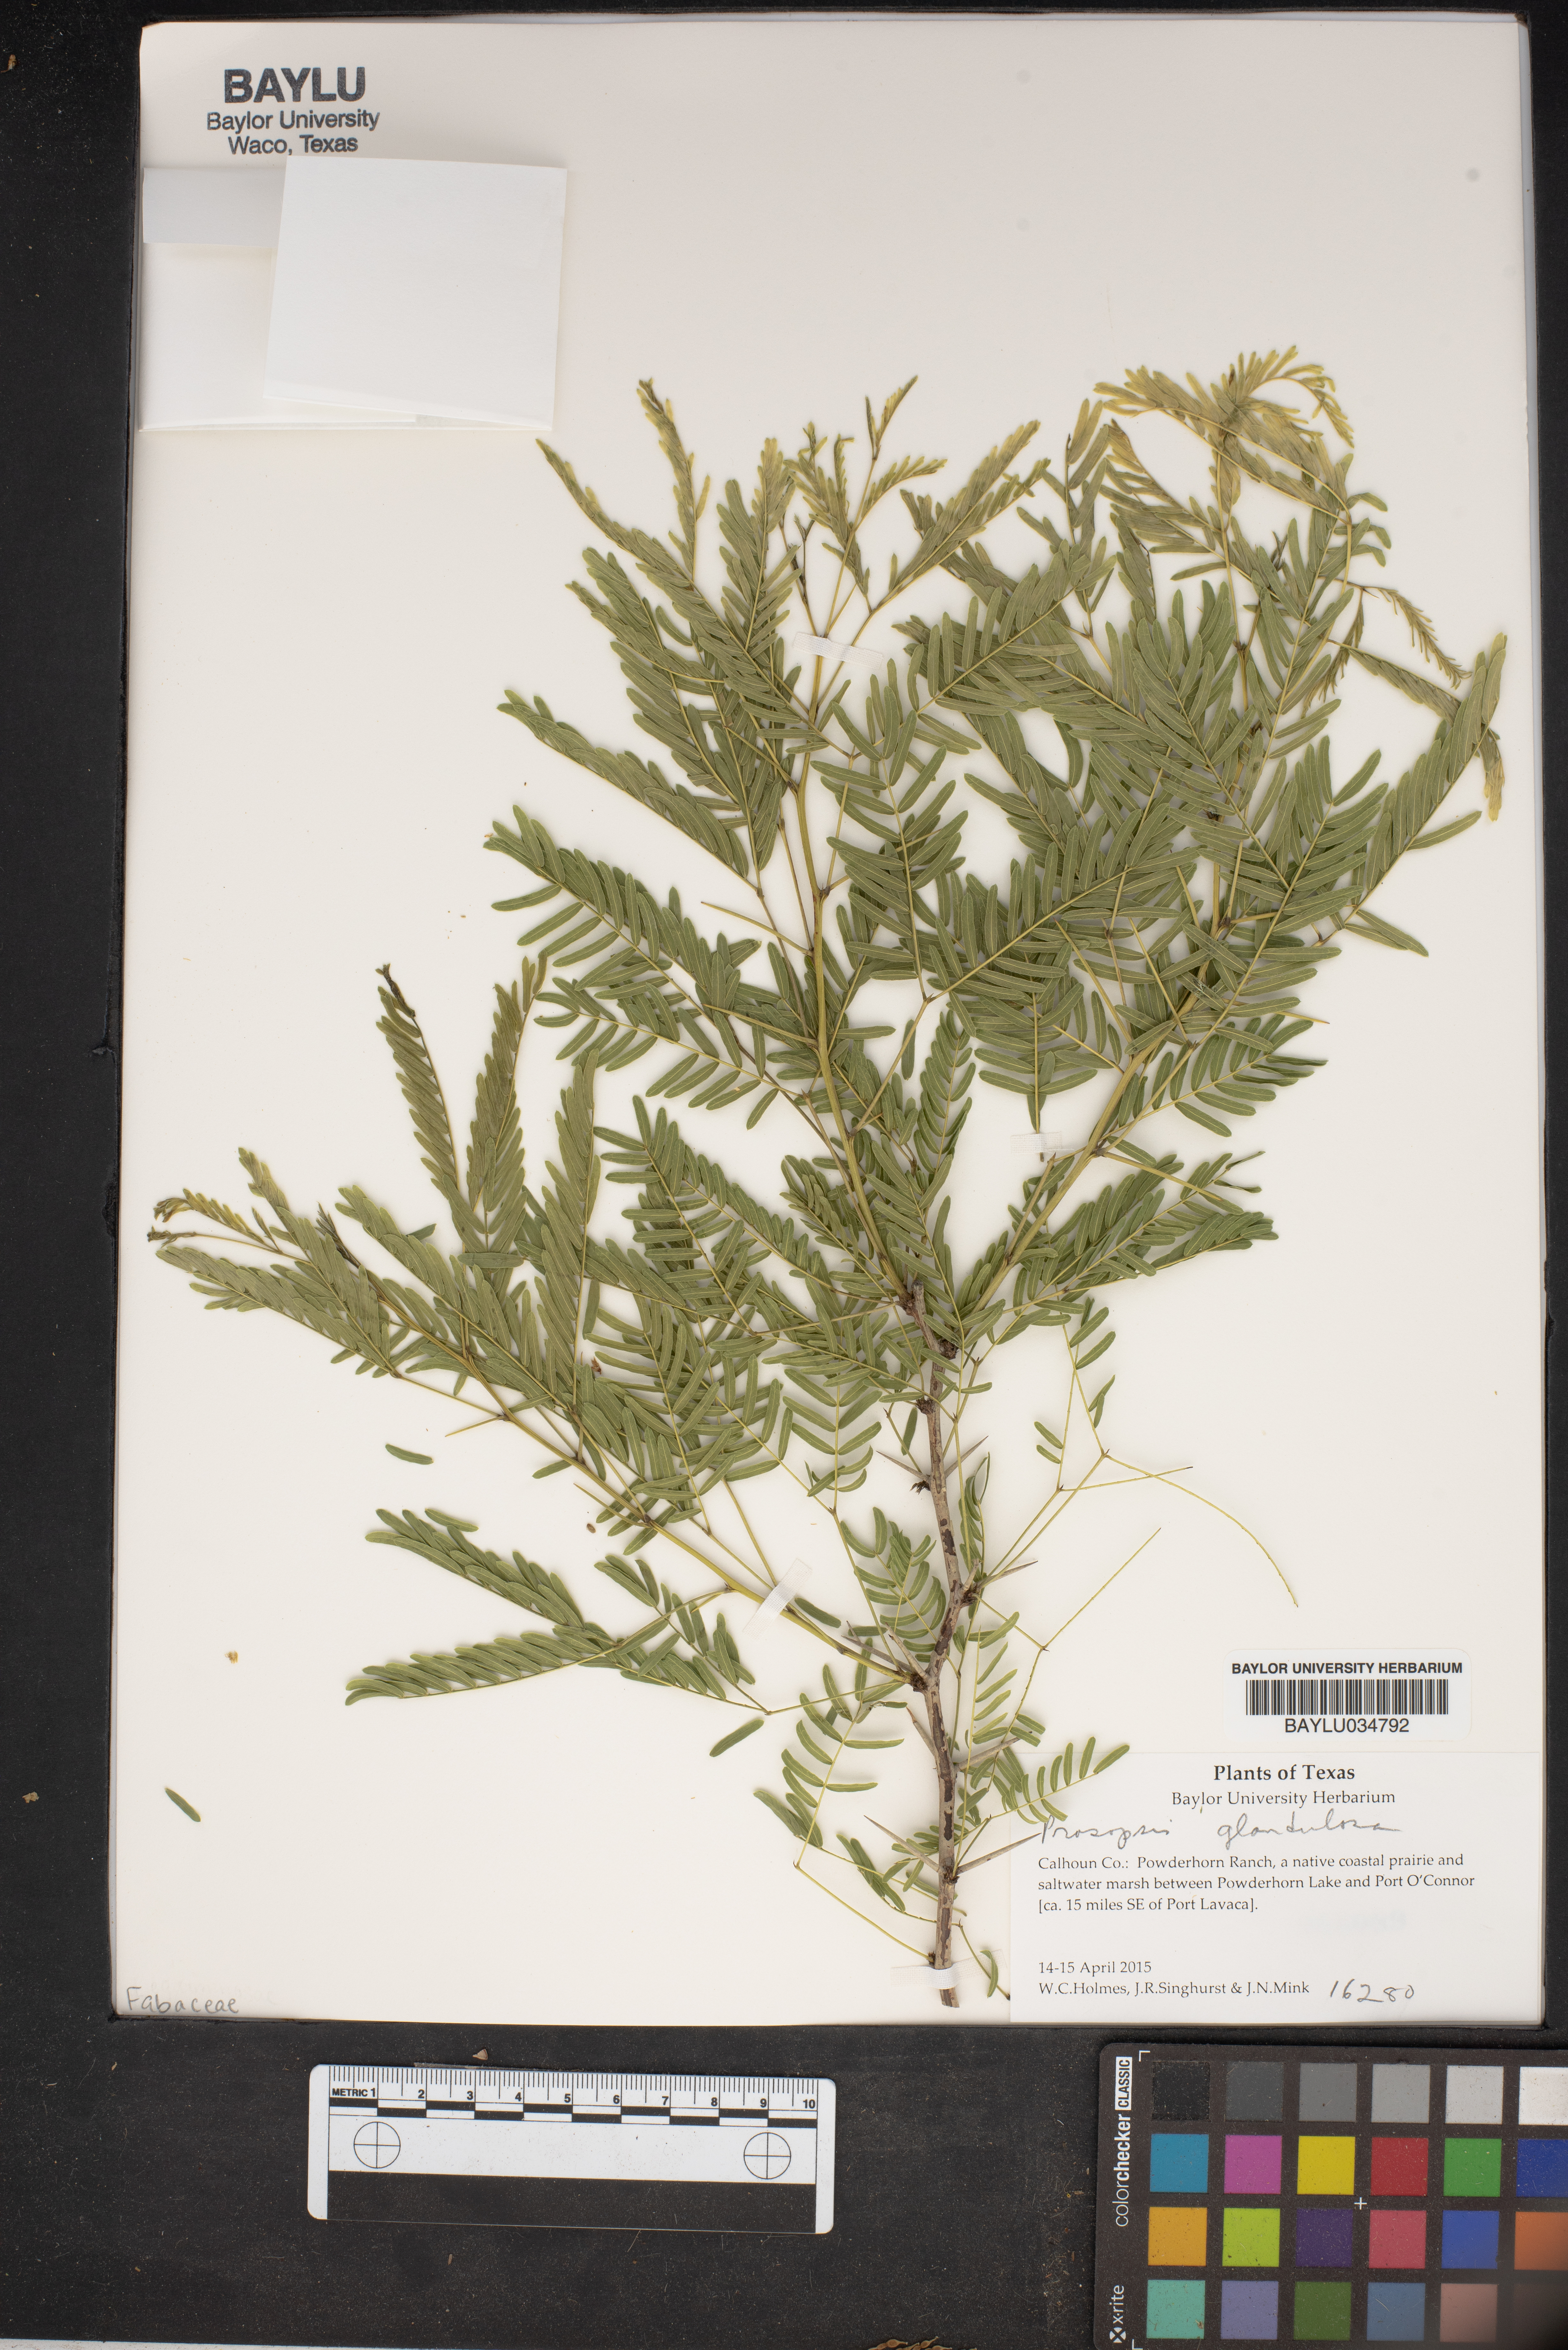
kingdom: Plantae
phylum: Tracheophyta
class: Magnoliopsida
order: Fabales
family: Fabaceae
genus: Prosopis
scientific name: Prosopis glandulosa
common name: Honey mesquite
